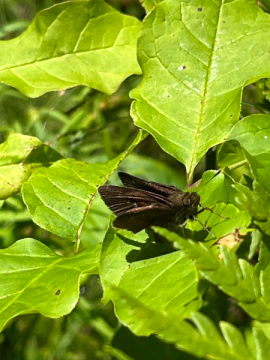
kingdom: Animalia
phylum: Arthropoda
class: Insecta
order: Lepidoptera
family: Hesperiidae
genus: Euphyes
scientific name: Euphyes vestris
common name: Dun Skipper
